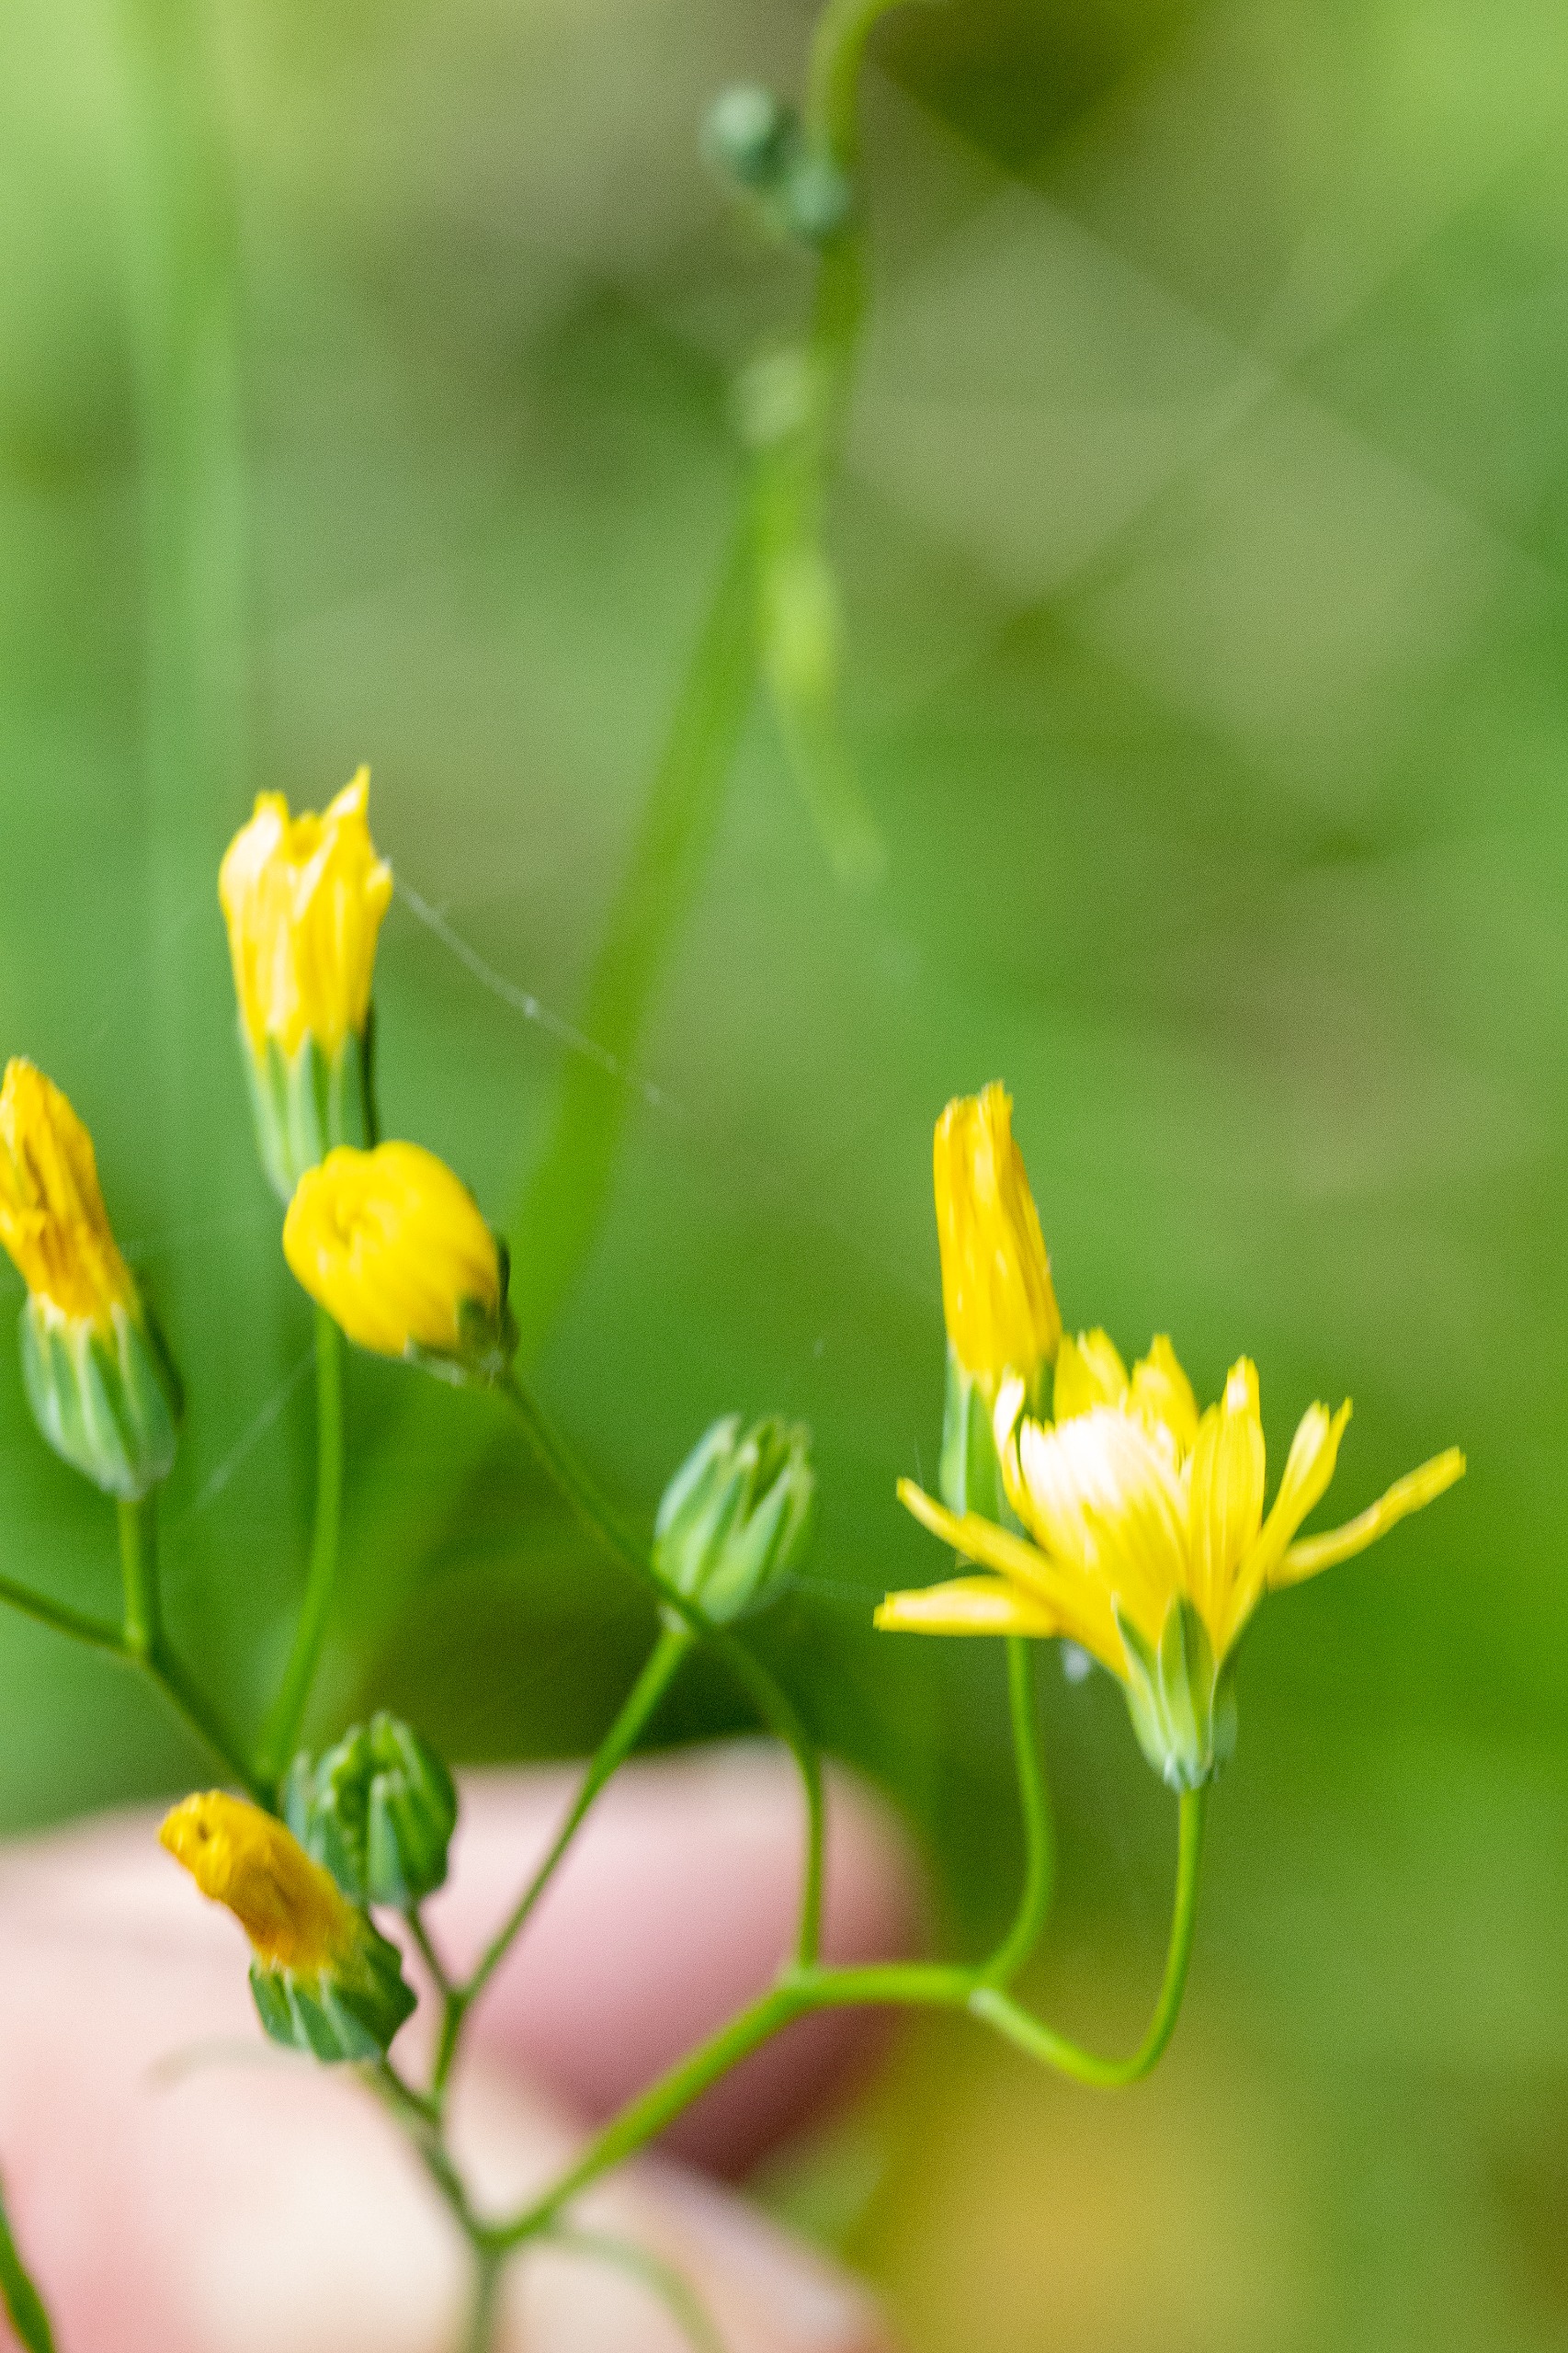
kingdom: Plantae
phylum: Tracheophyta
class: Magnoliopsida
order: Asterales
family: Asteraceae
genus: Lapsana
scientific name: Lapsana communis
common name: Haremad
